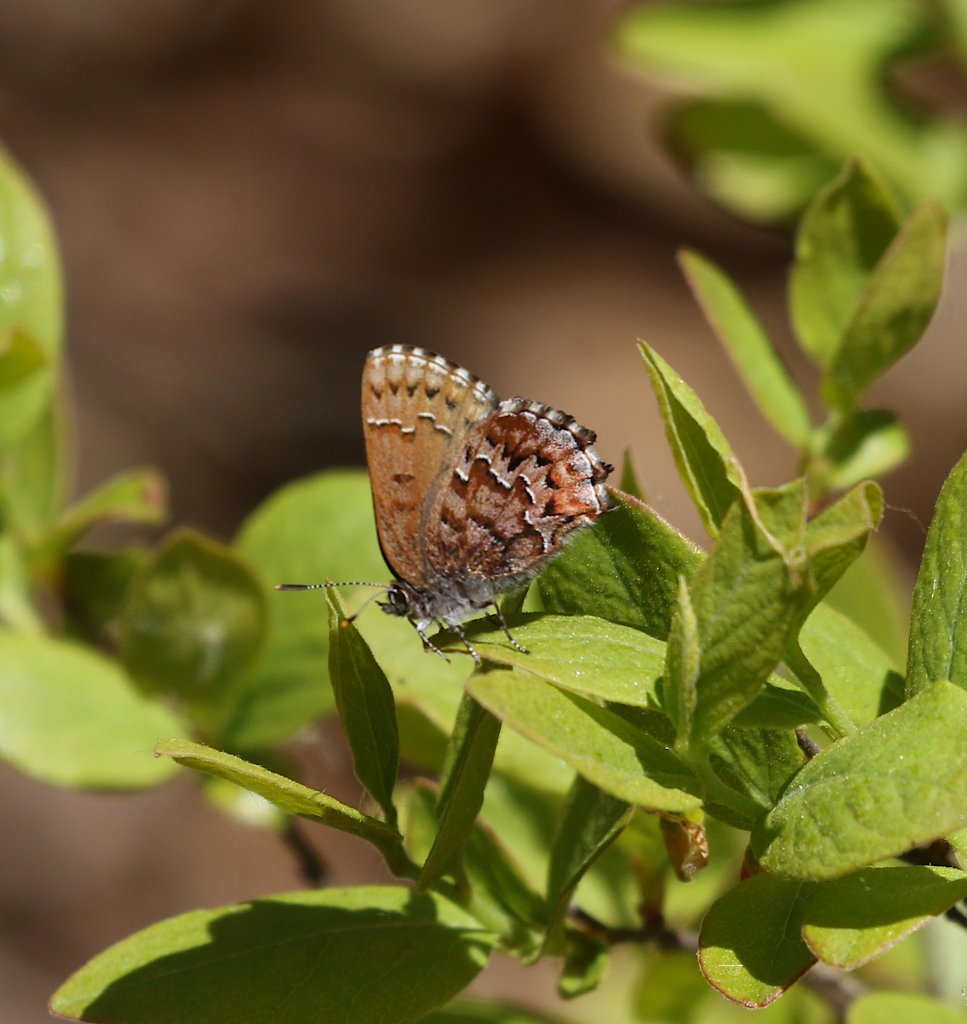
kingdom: Animalia
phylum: Arthropoda
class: Insecta
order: Lepidoptera
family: Lycaenidae
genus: Incisalia
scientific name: Incisalia niphon
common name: Eastern Pine Elfin
